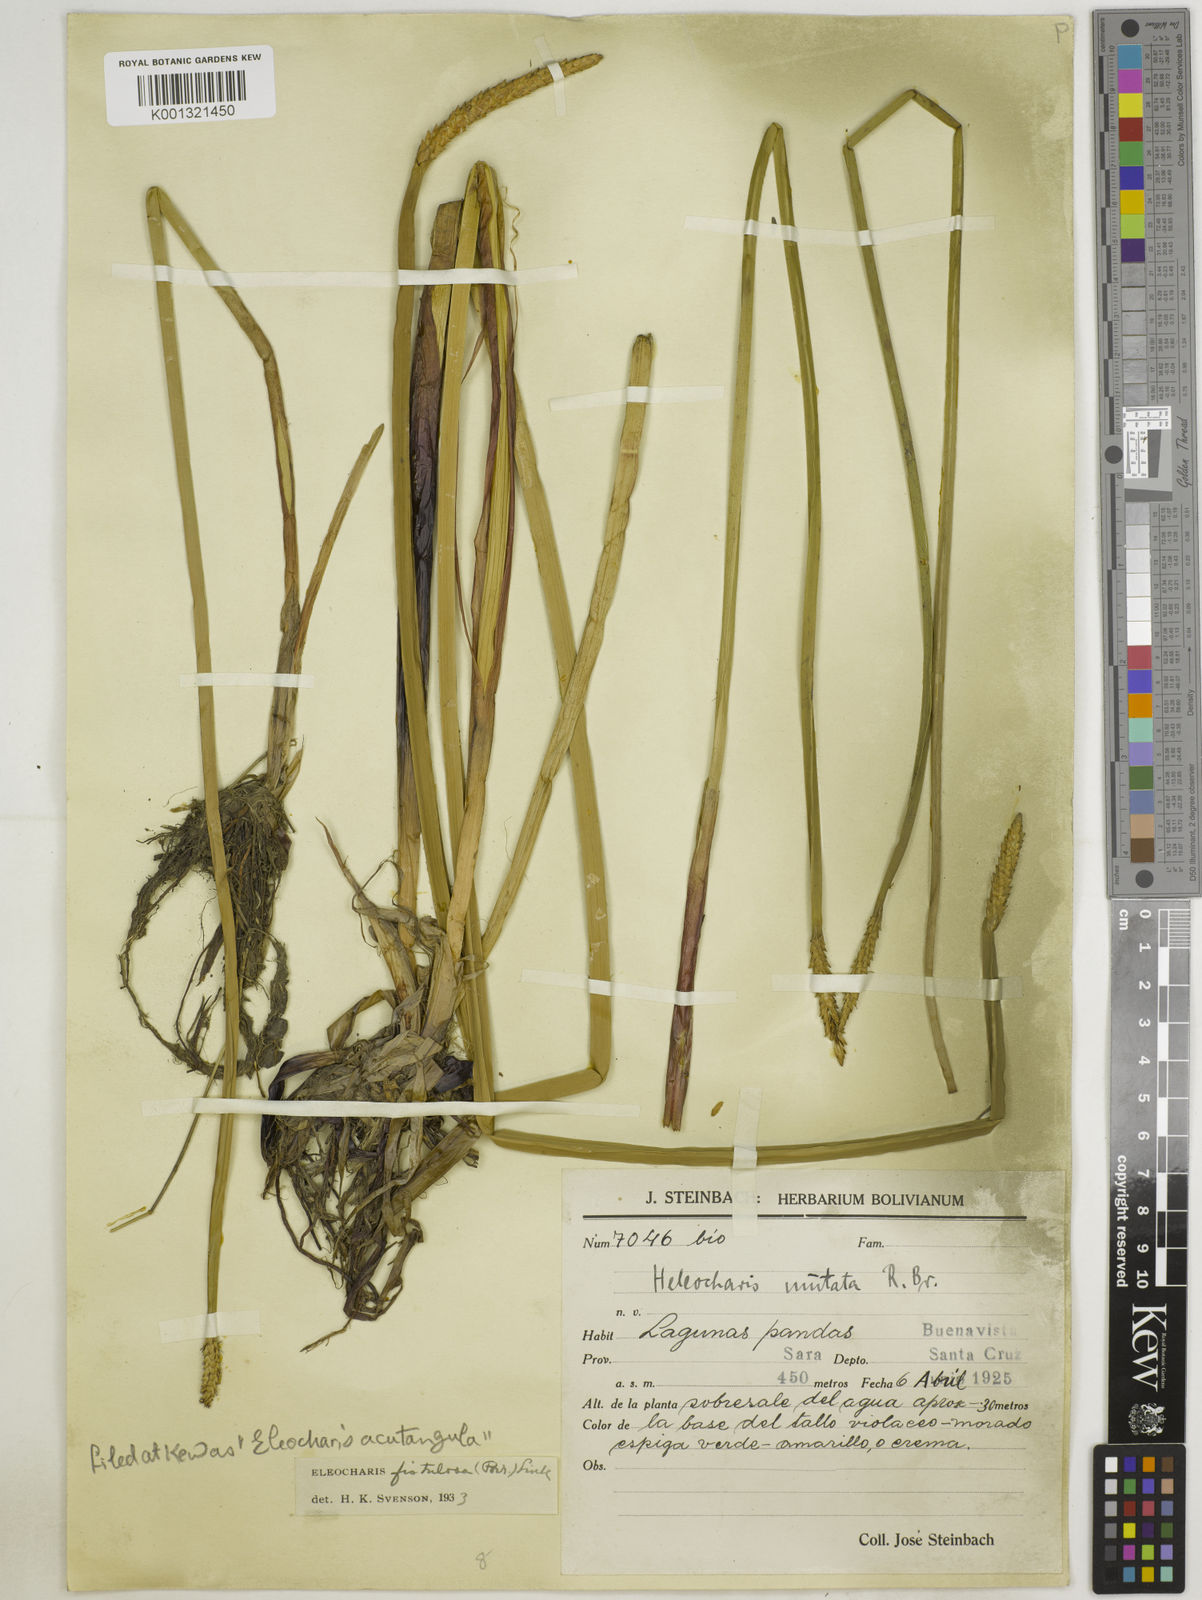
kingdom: Plantae
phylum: Tracheophyta
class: Liliopsida
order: Poales
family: Cyperaceae
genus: Eleocharis
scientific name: Eleocharis acutangula
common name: Acute spikerush
